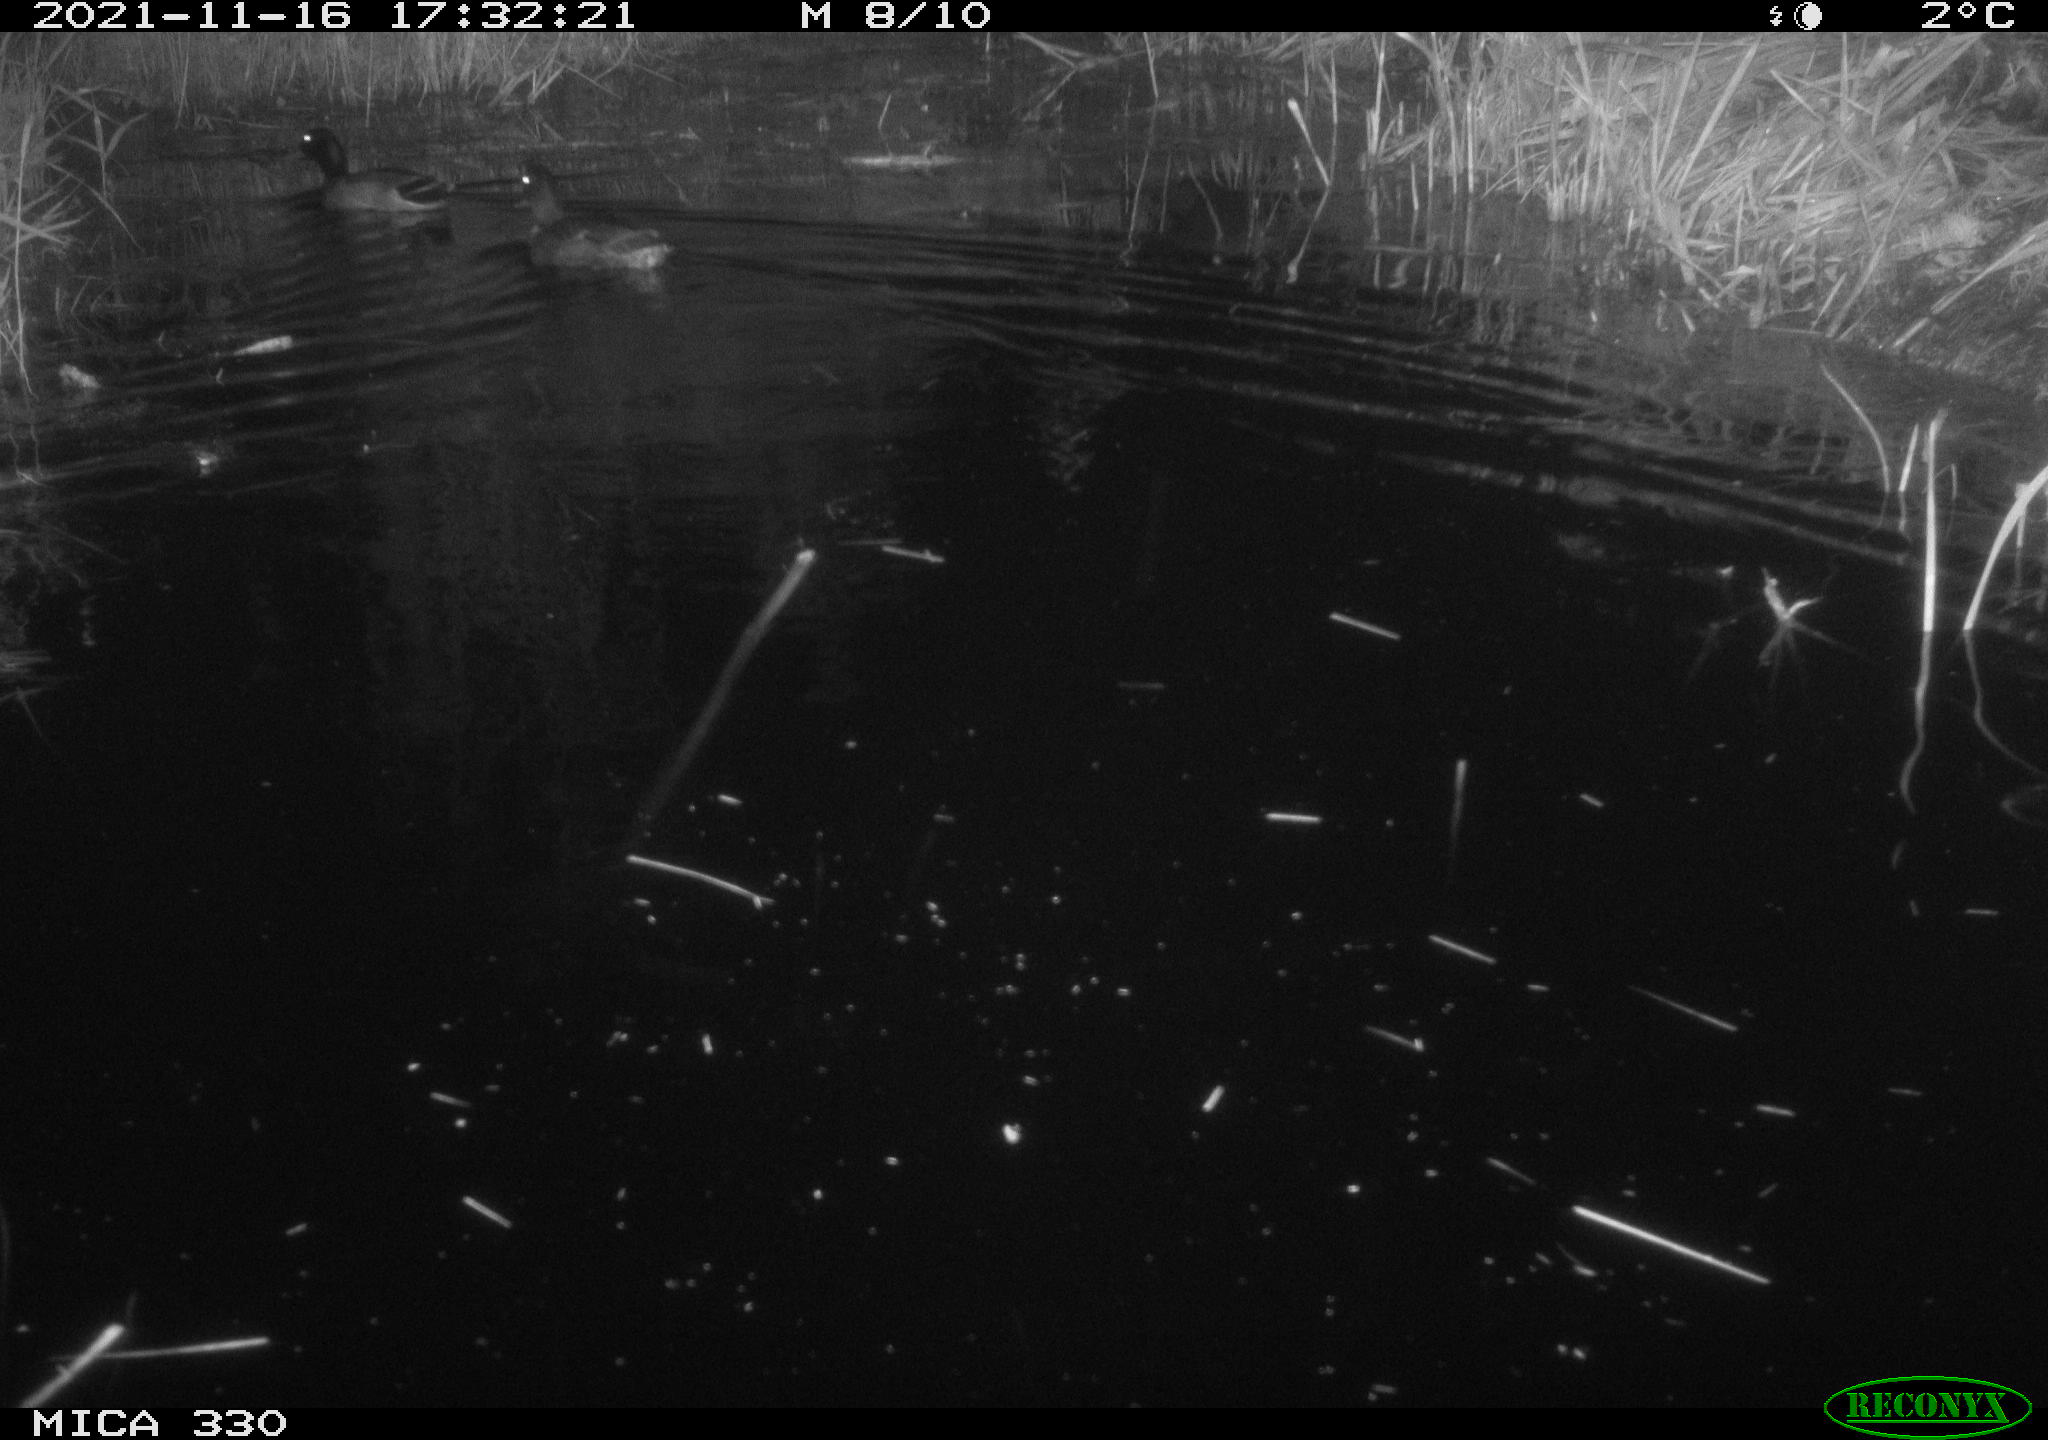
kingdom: Animalia
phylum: Chordata
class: Aves
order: Anseriformes
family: Anatidae
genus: Anas
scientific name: Anas platyrhynchos
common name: Mallard
